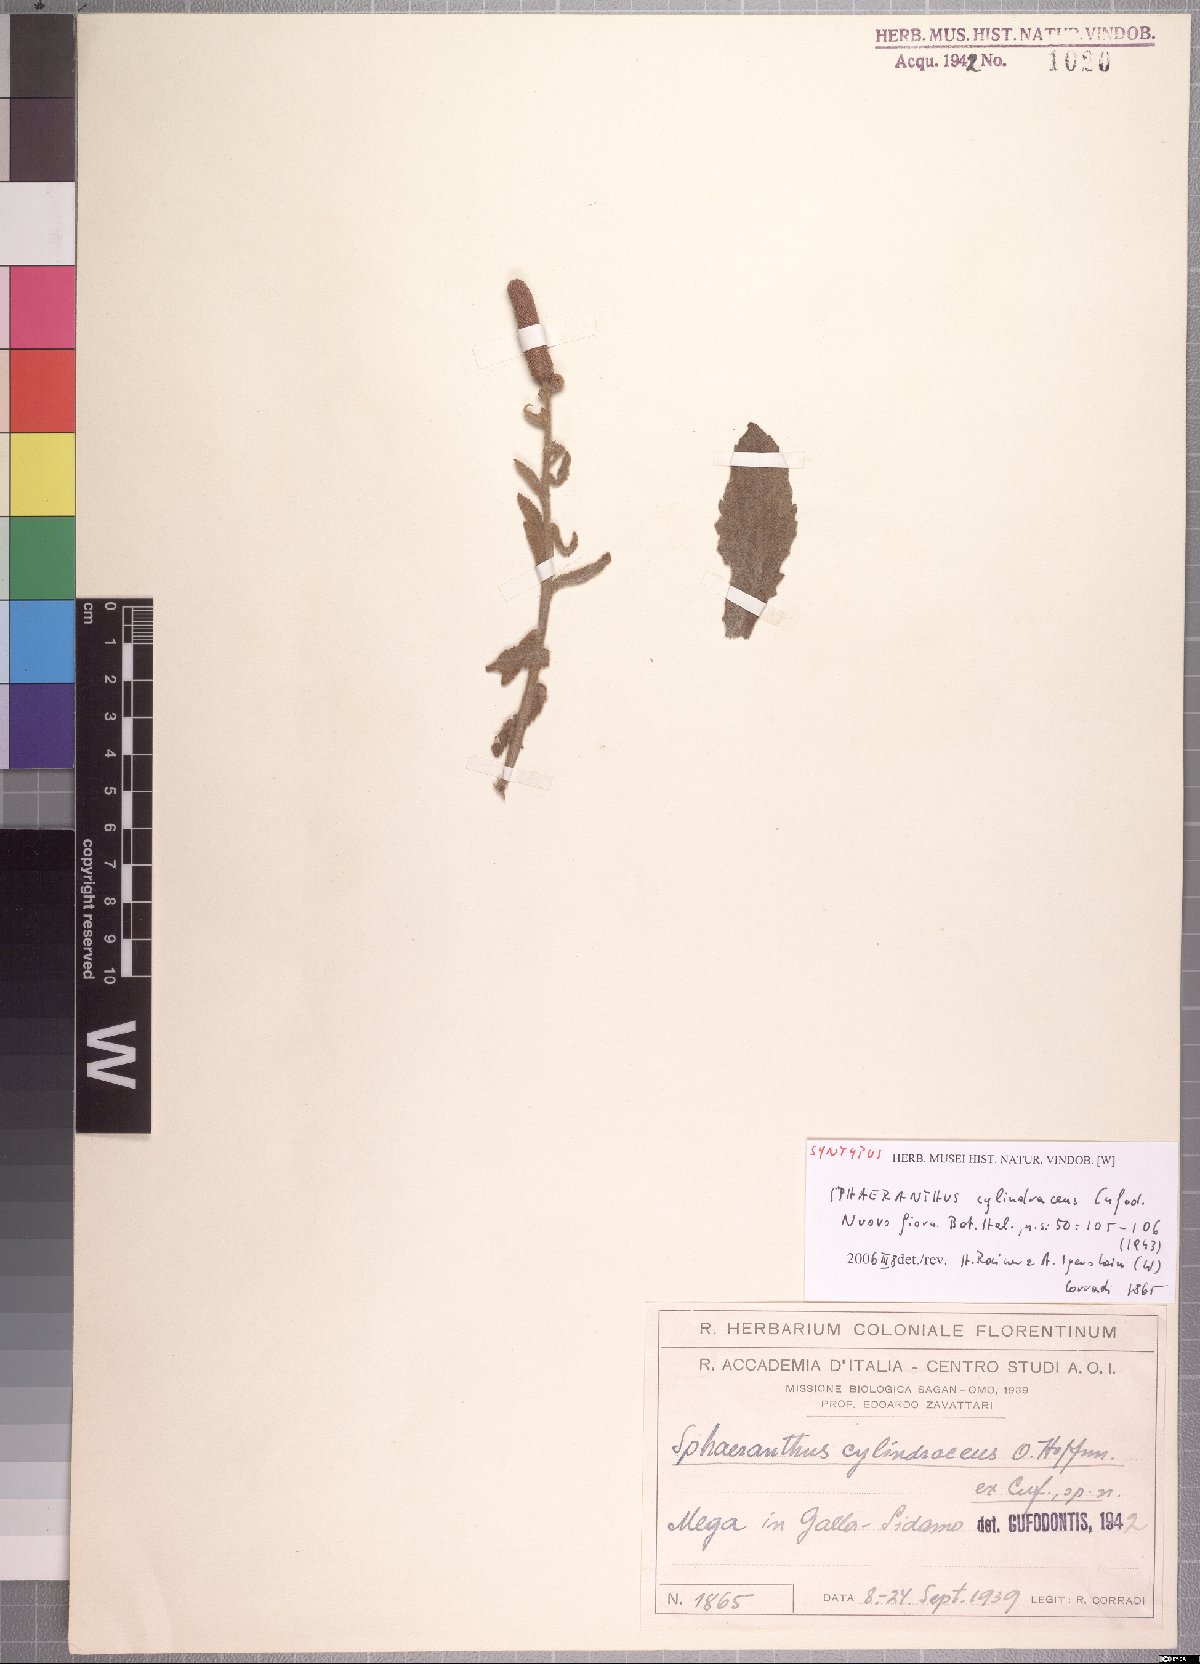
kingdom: Plantae
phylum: Tracheophyta
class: Magnoliopsida
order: Asterales
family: Asteraceae
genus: Sphaeranthus
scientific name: Sphaeranthus ukambensis
